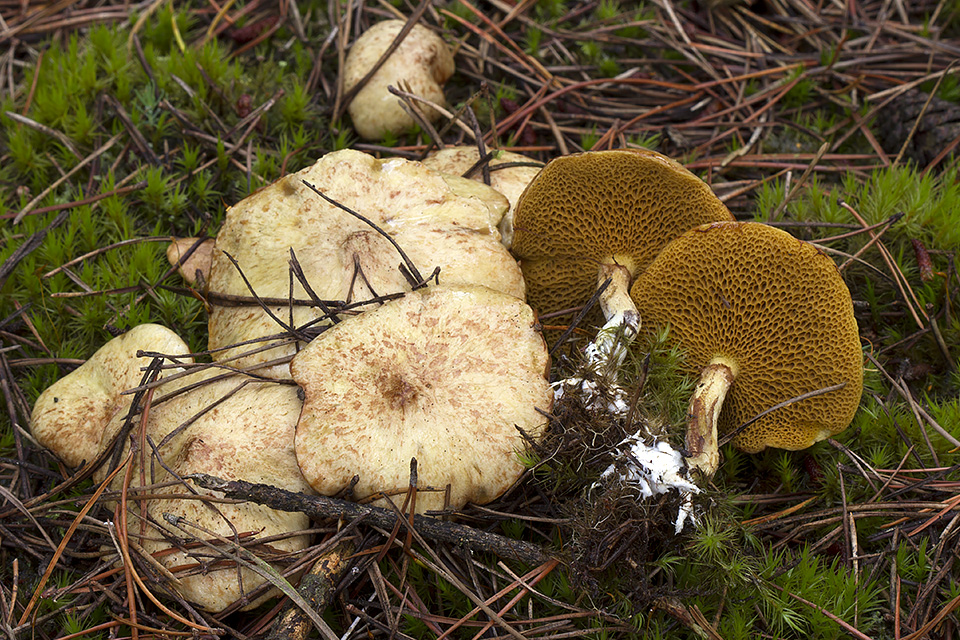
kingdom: Fungi
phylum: Basidiomycota
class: Agaricomycetes
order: Boletales
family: Suillaceae
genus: Suillus
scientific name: Suillus flavidus
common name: mose-slimrørhat
